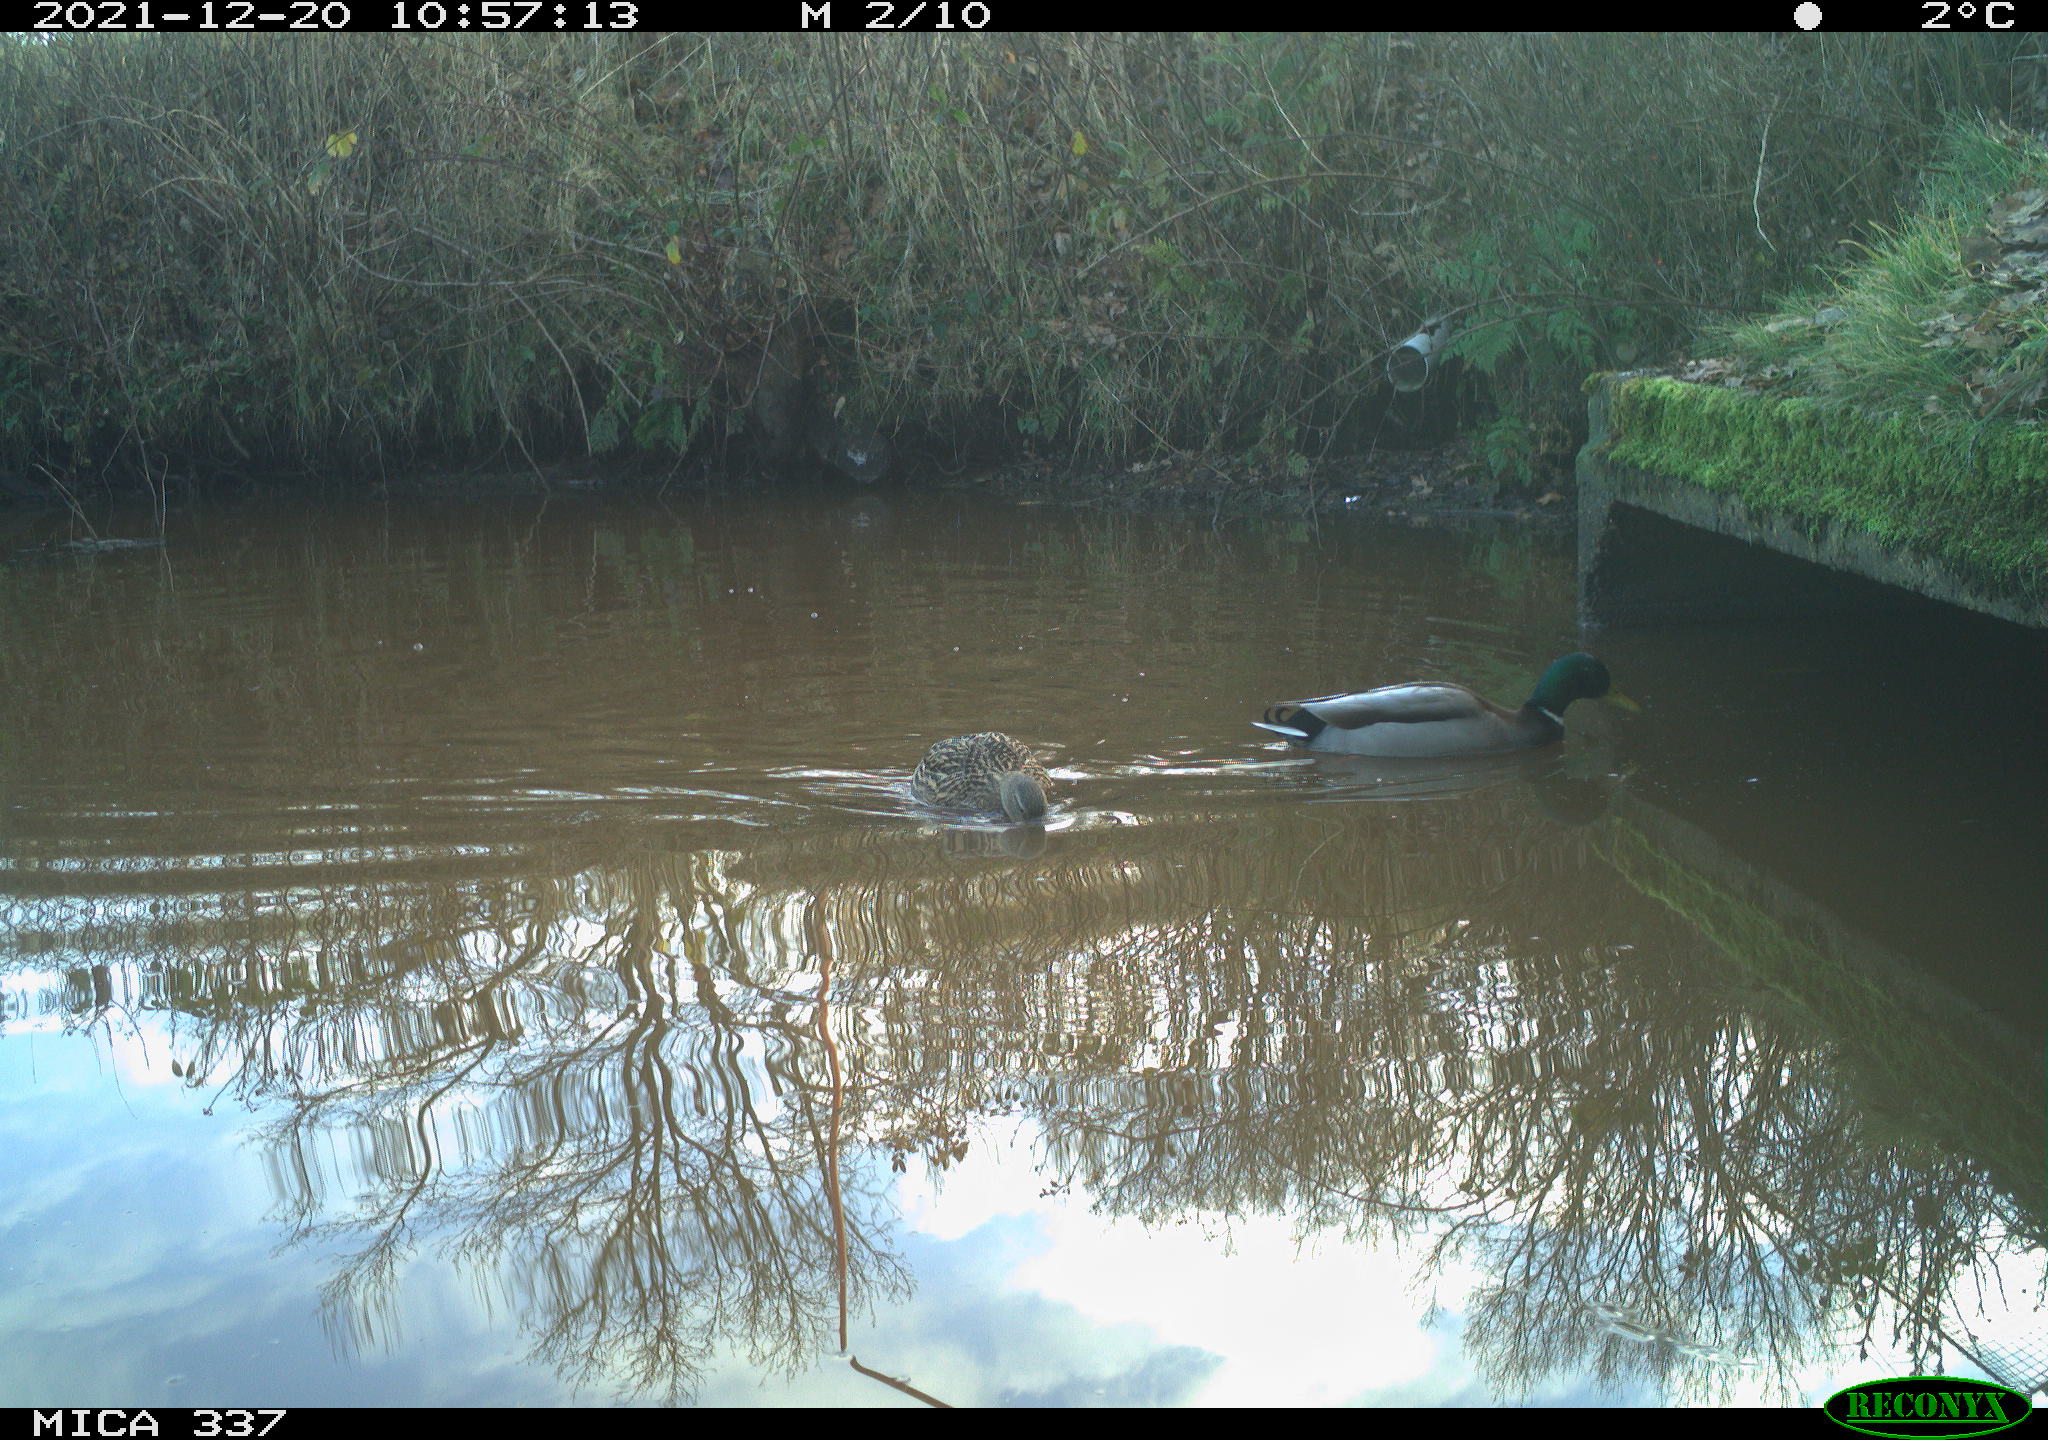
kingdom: Animalia
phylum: Chordata
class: Aves
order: Anseriformes
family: Anatidae
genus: Anas
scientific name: Anas platyrhynchos
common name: Mallard
